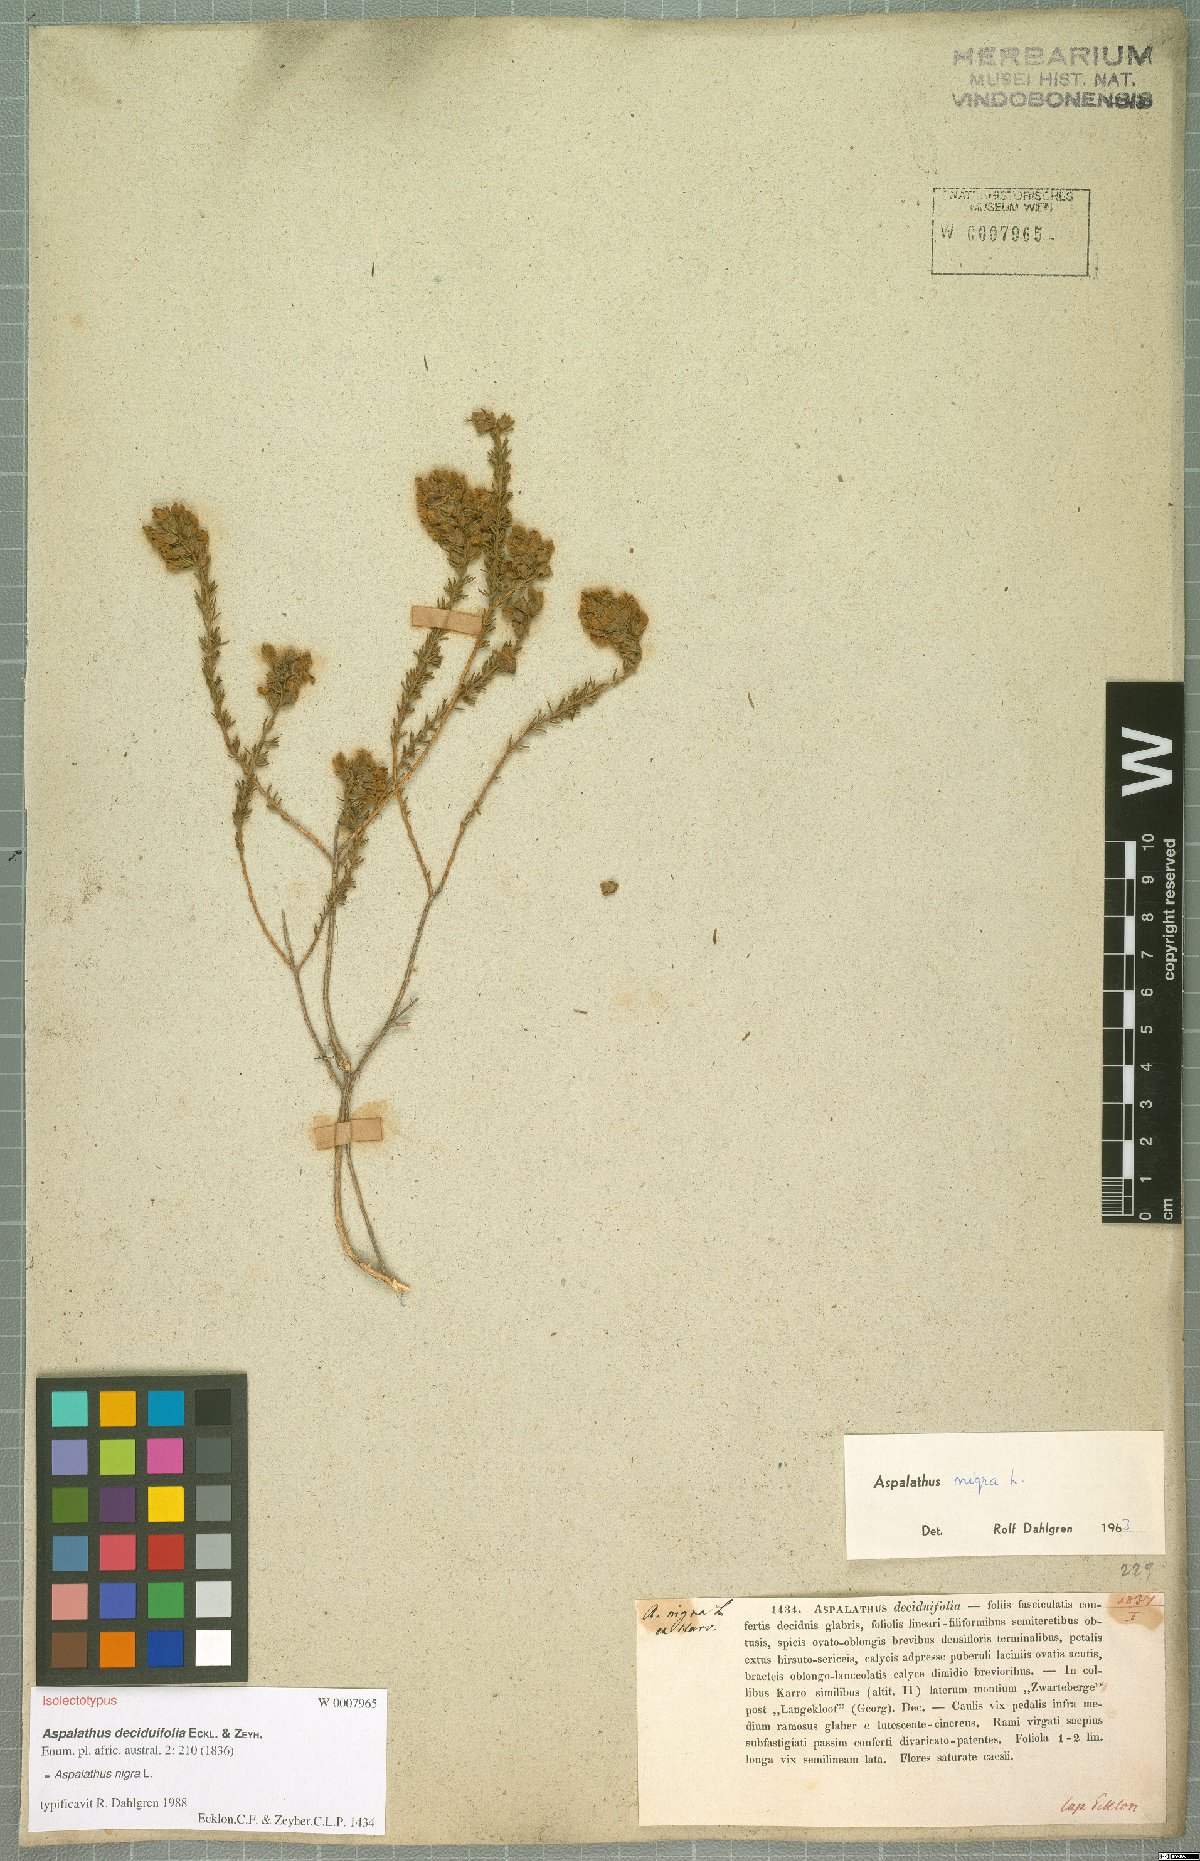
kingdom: Plantae
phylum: Tracheophyta
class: Magnoliopsida
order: Fabales
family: Fabaceae
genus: Aspalathus
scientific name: Aspalathus nigra
